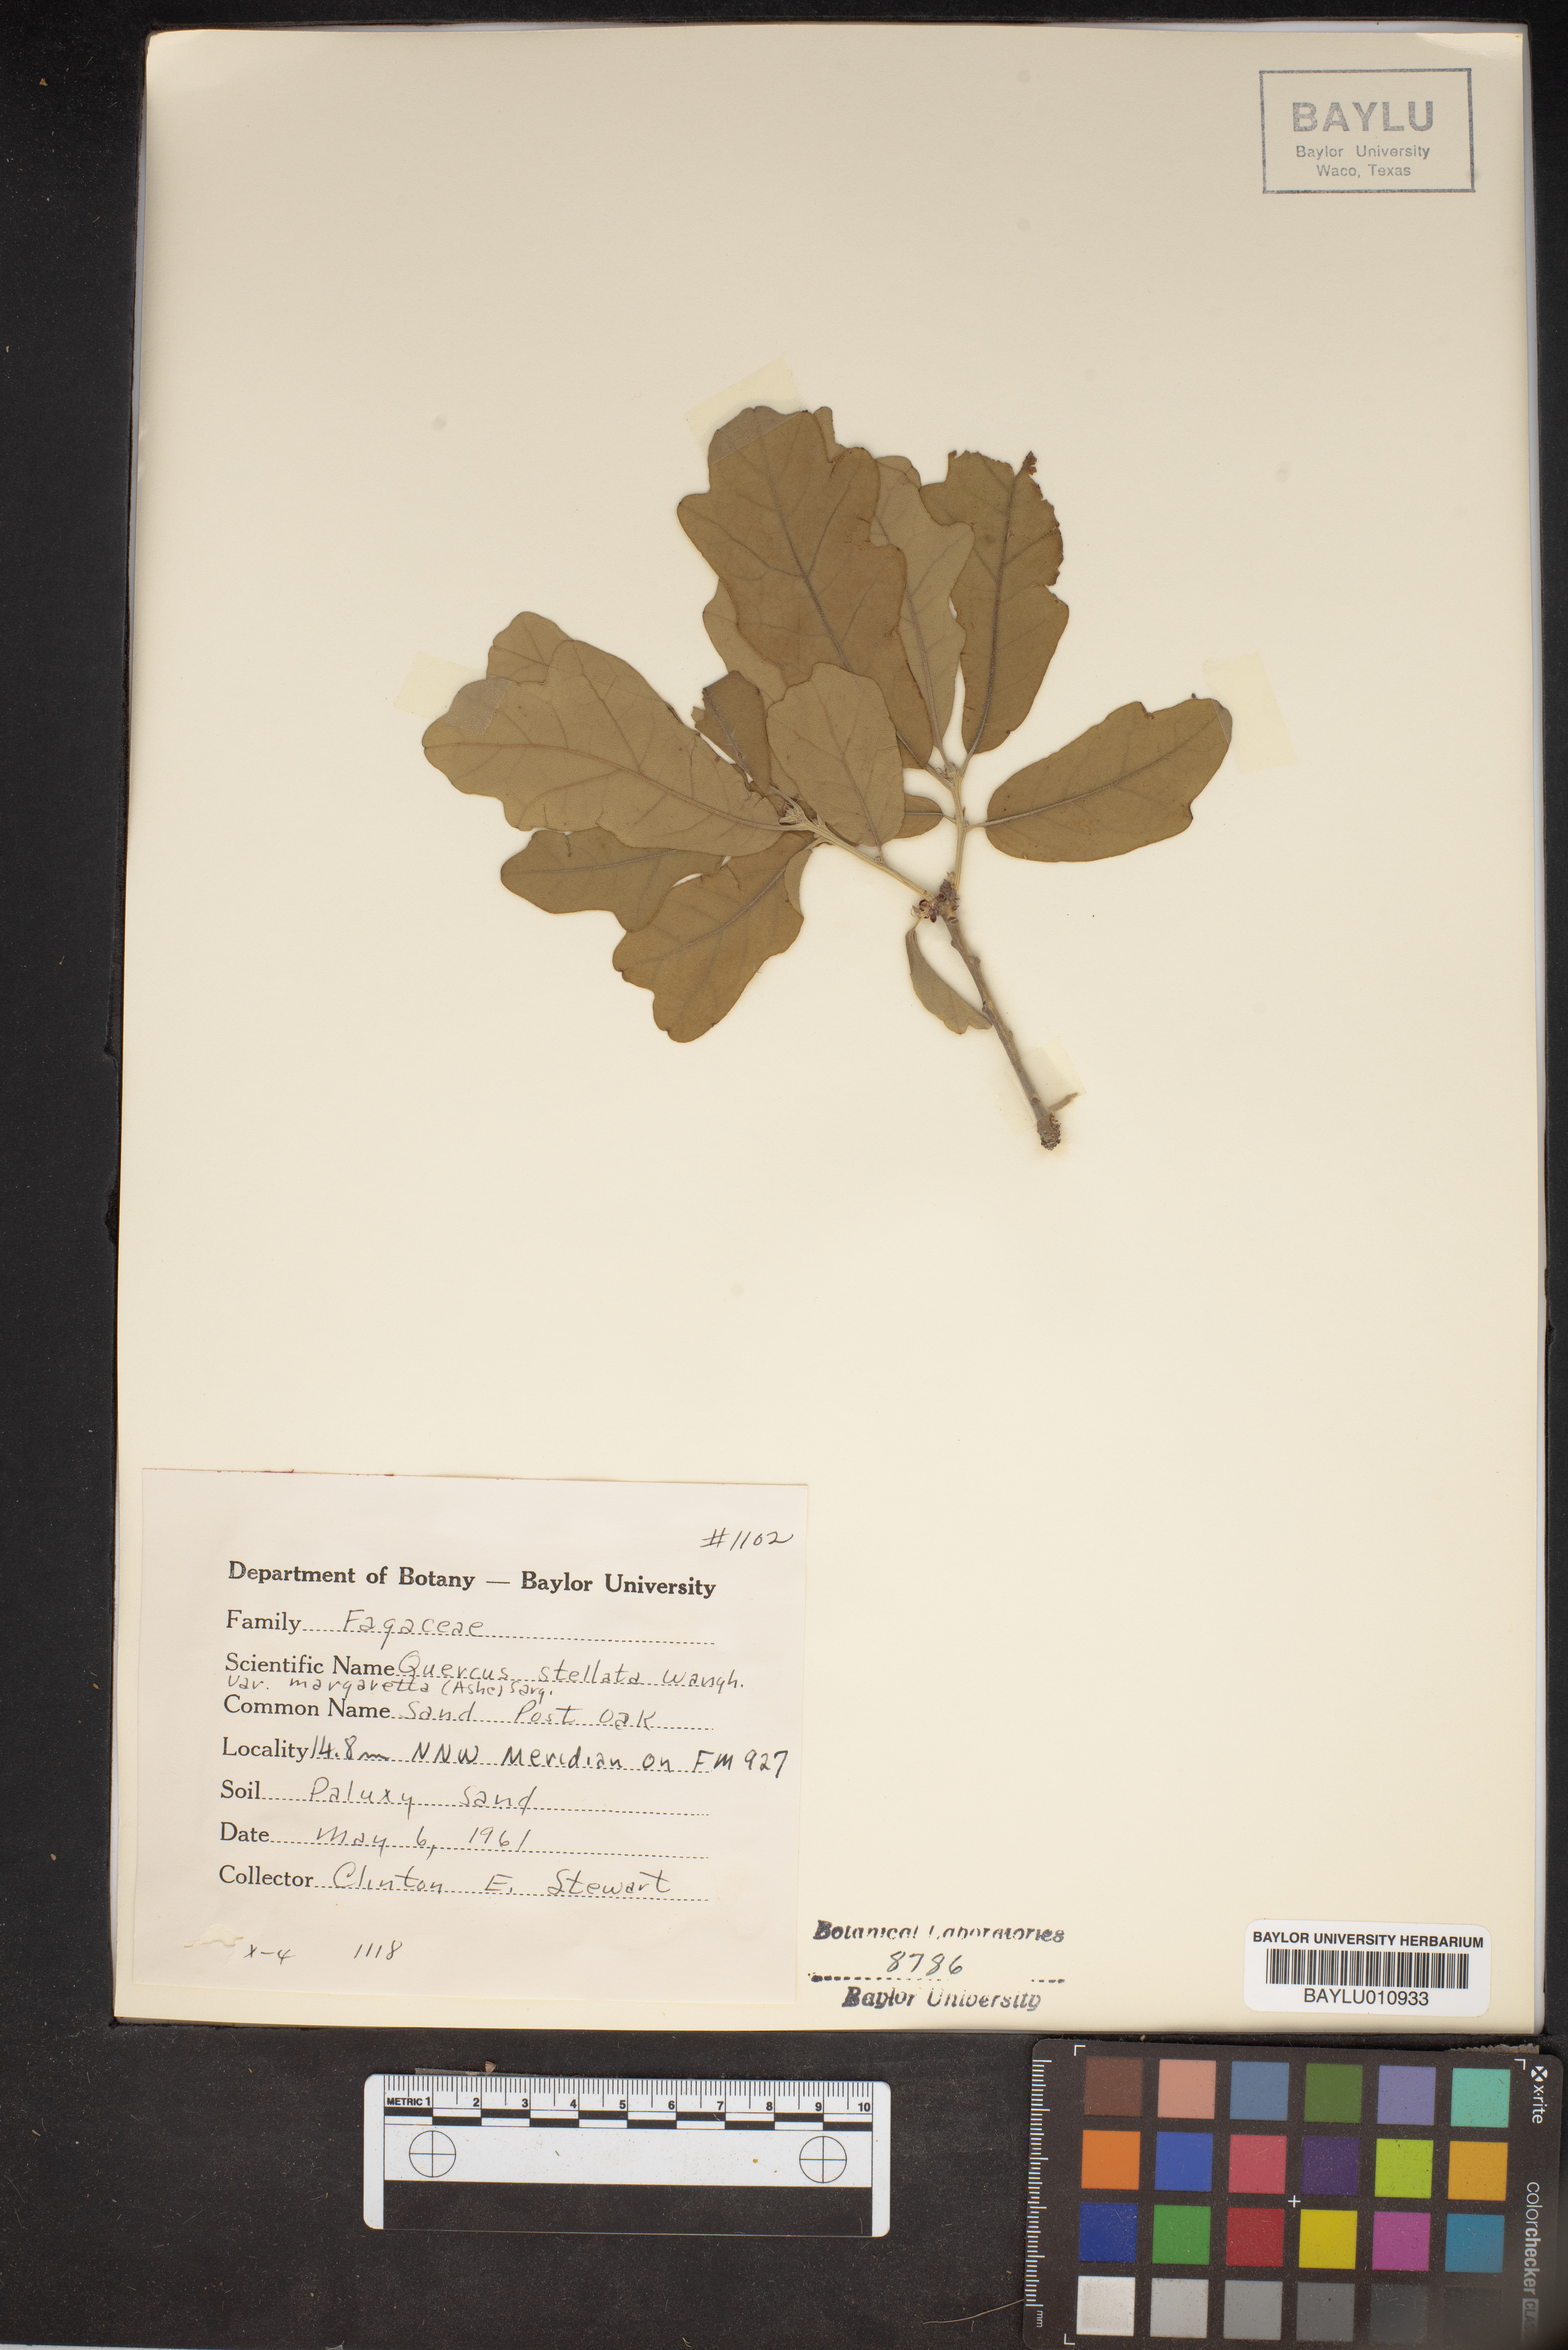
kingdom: Plantae
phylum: Tracheophyta
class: Magnoliopsida
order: Fagales
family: Fagaceae
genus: Quercus
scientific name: Quercus margaretta
